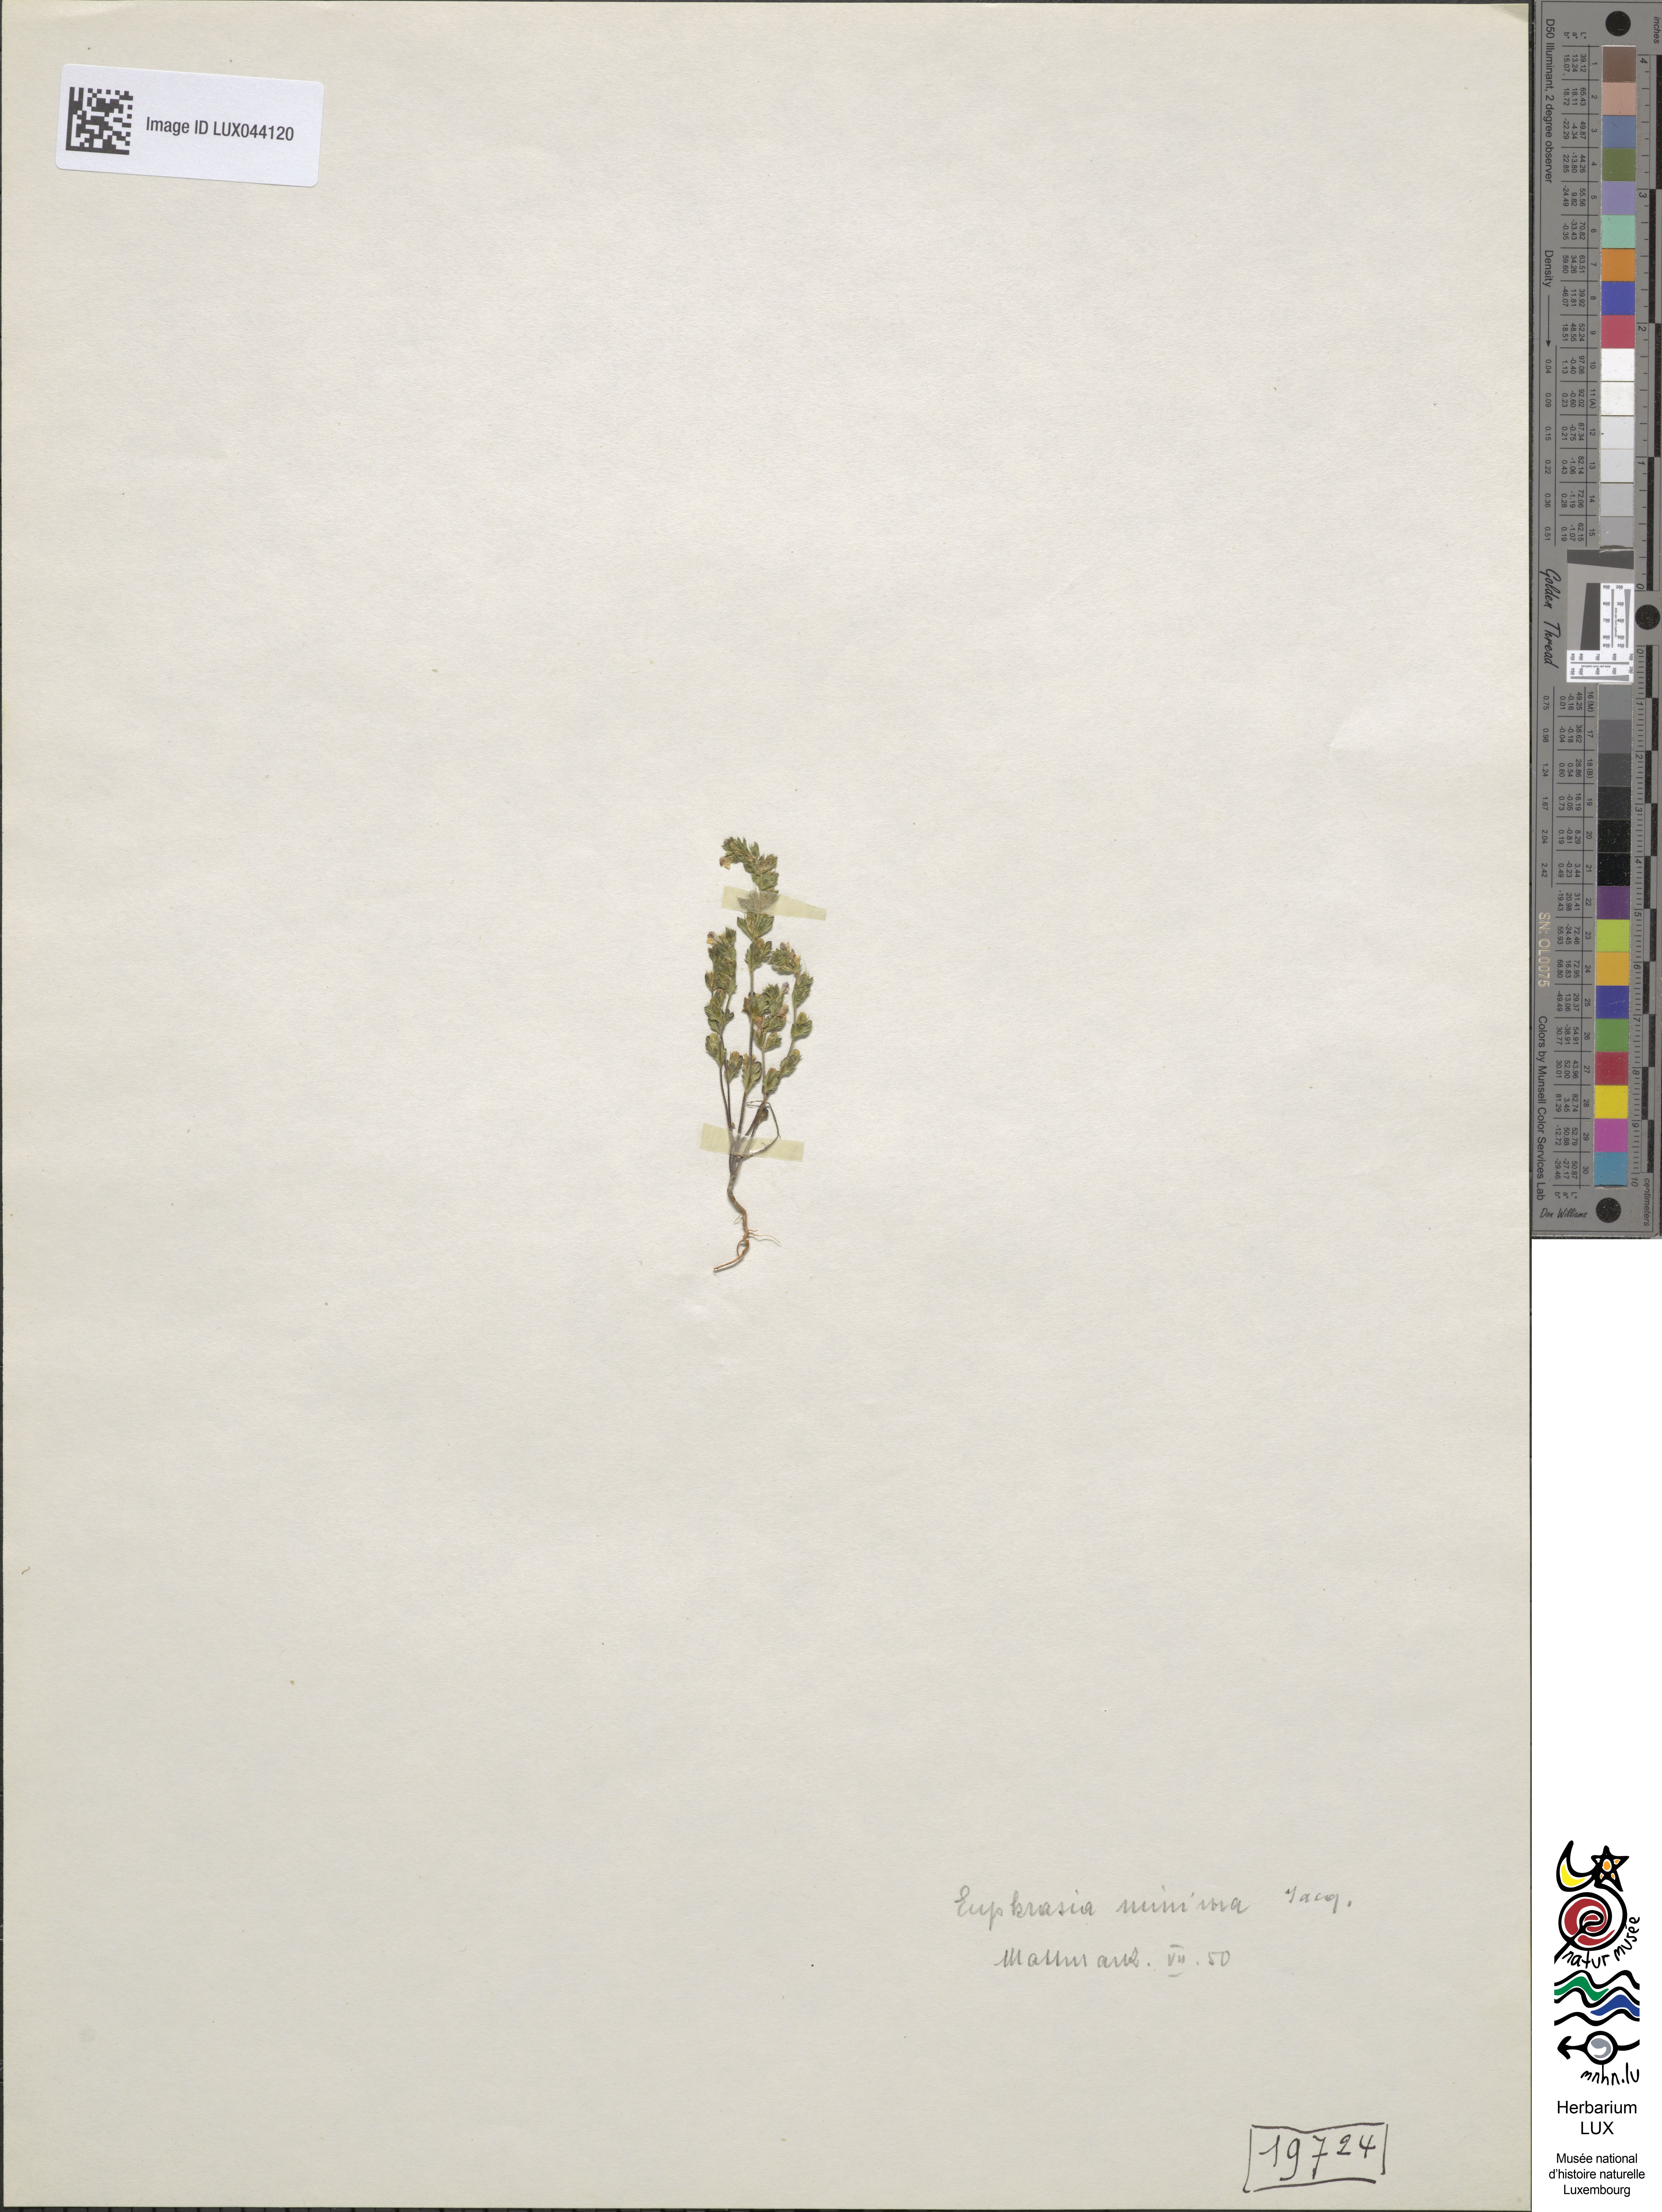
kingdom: Plantae
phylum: Tracheophyta
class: Magnoliopsida
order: Lamiales
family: Orobanchaceae
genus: Euphrasia
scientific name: Euphrasia minima
